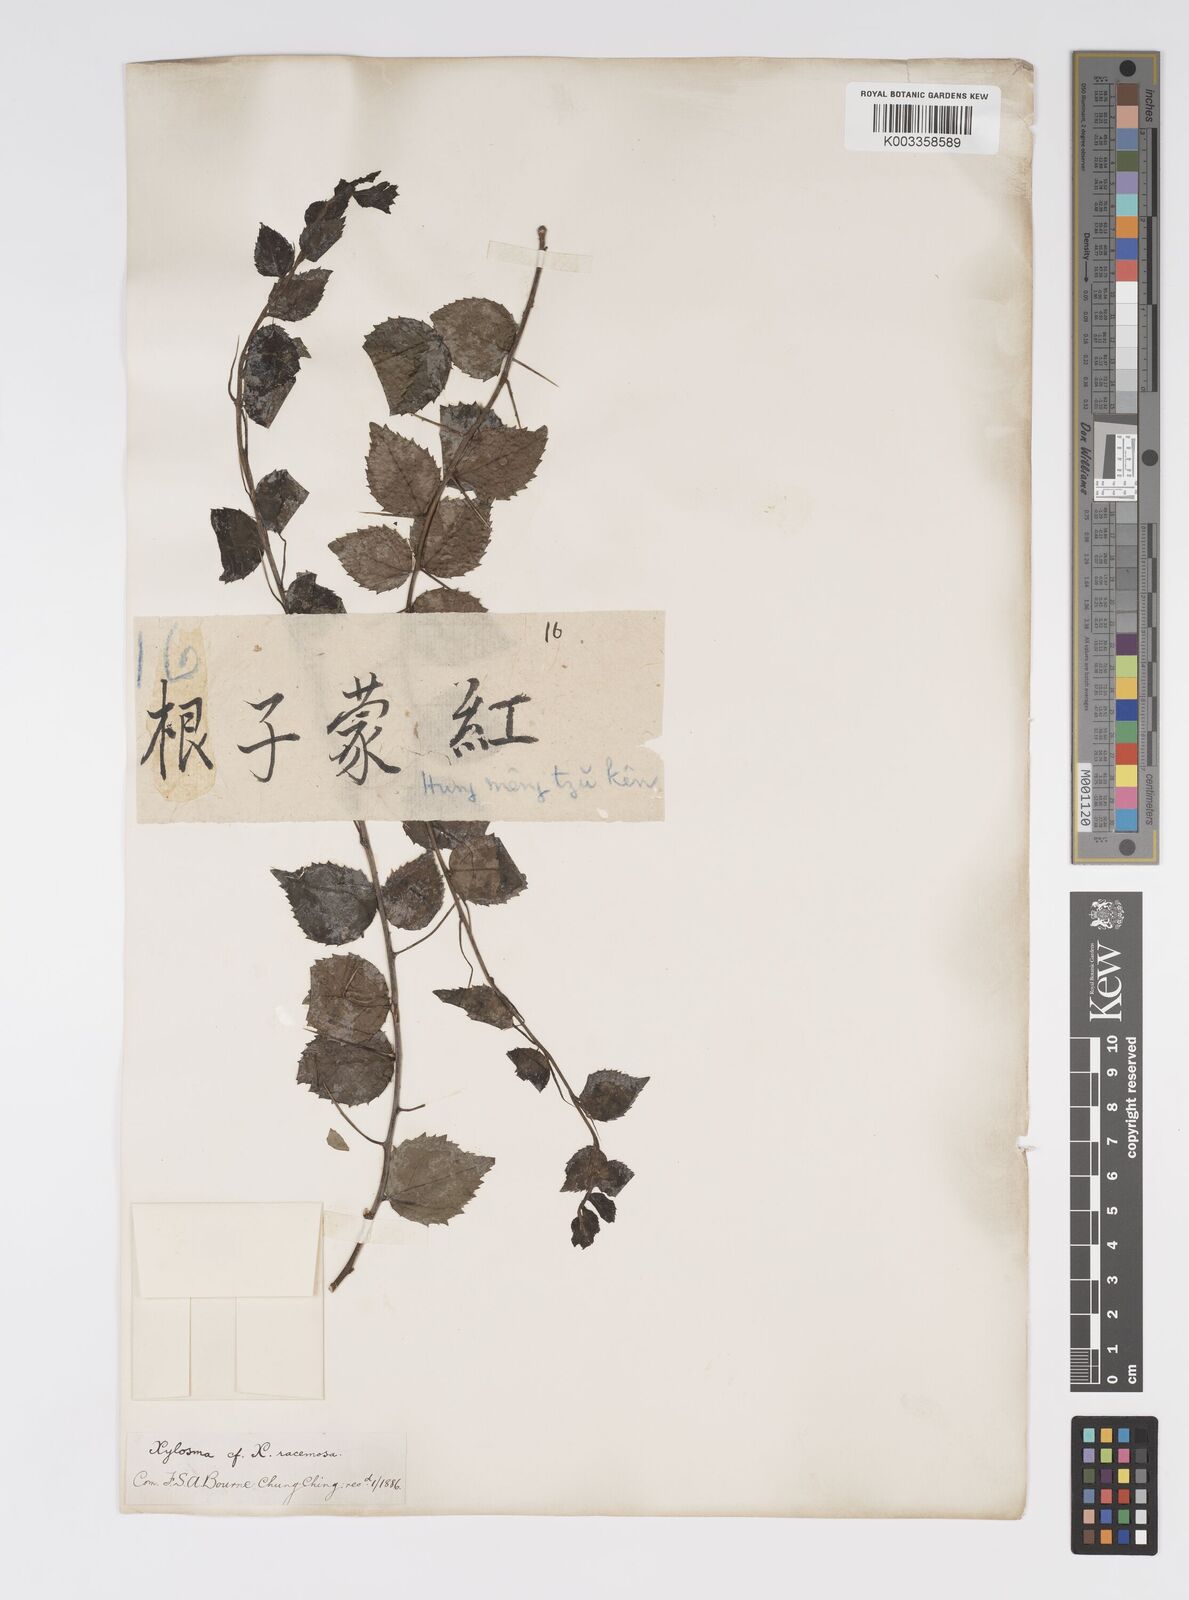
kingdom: Plantae
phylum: Tracheophyta
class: Magnoliopsida
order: Malpighiales
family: Salicaceae
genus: Xylosma
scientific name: Xylosma
